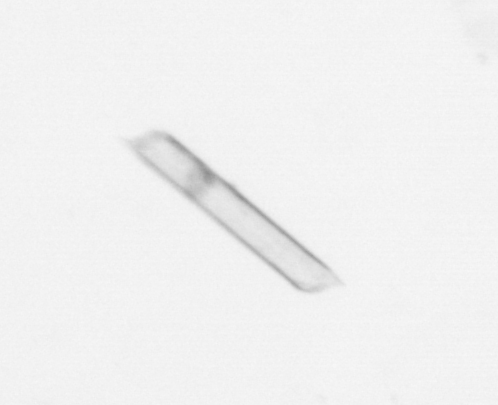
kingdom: Chromista
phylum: Ochrophyta
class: Bacillariophyceae
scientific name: Bacillariophyceae
